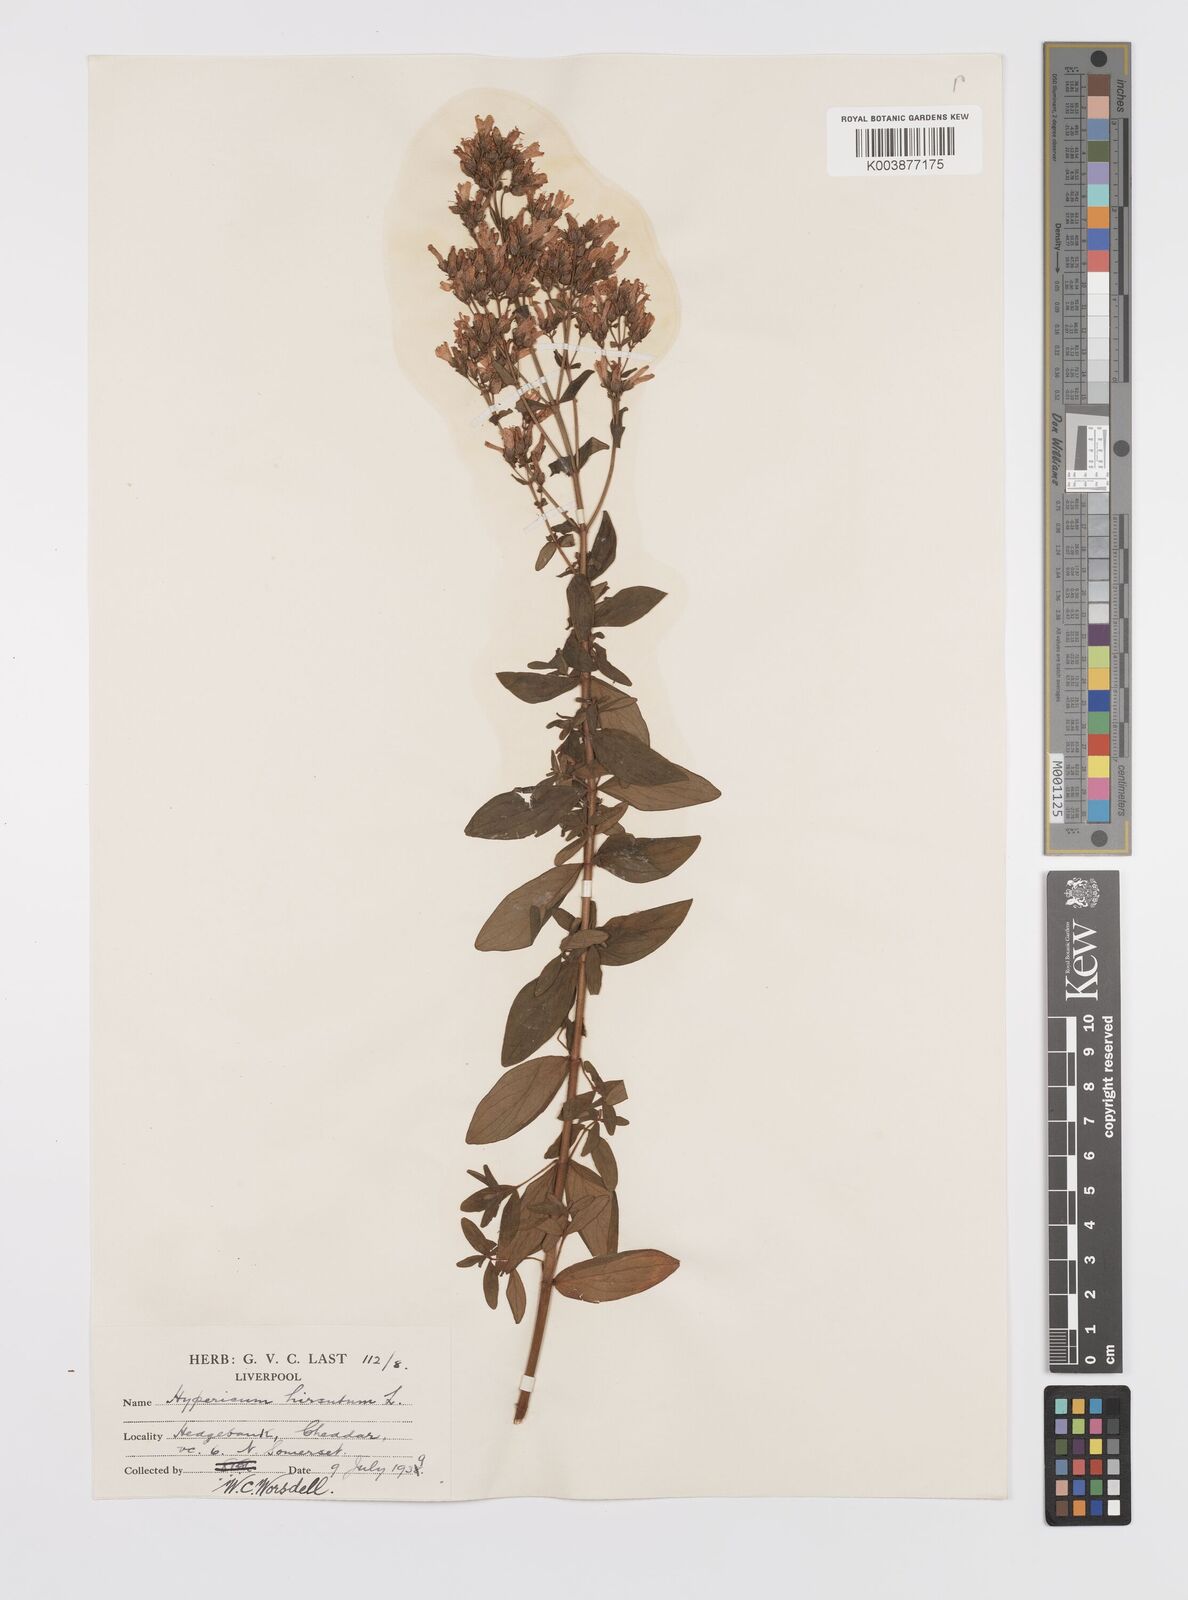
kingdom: Plantae
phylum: Tracheophyta
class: Magnoliopsida
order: Malpighiales
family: Hypericaceae
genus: Hypericum
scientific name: Hypericum hirsutum
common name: Hairy st. john's-wort
